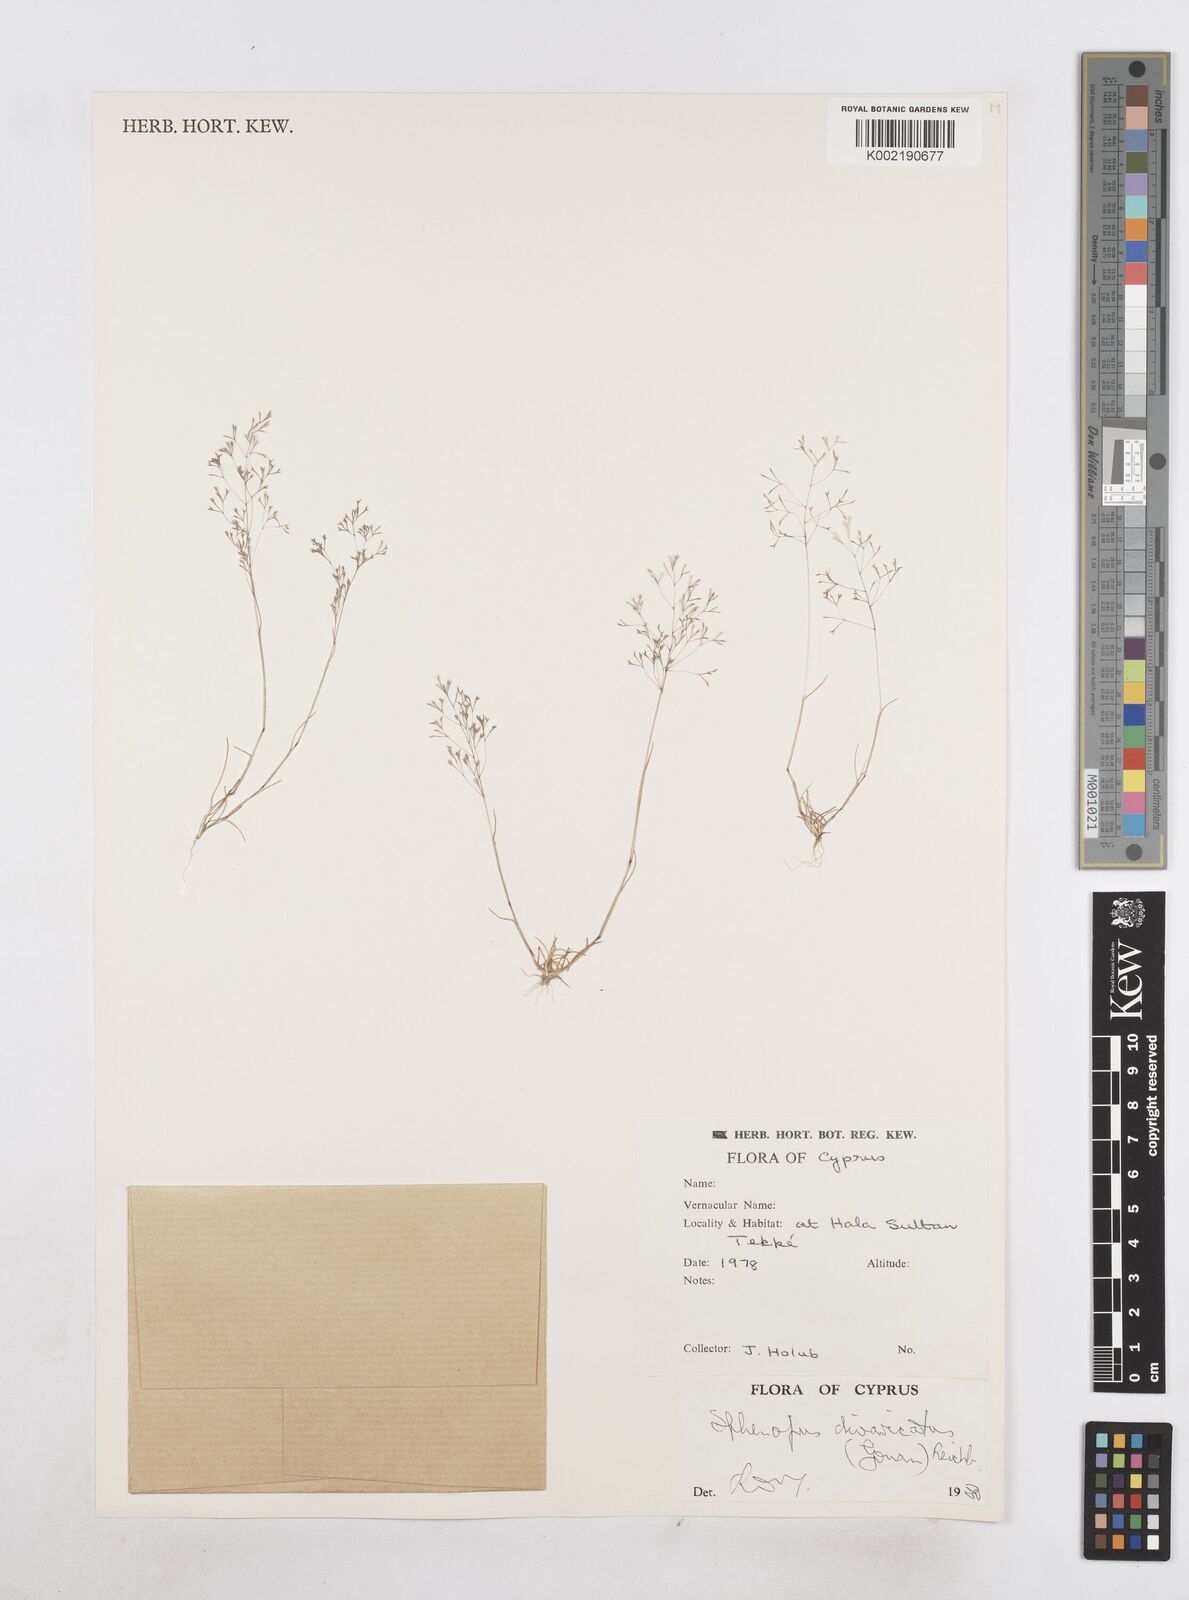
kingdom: Plantae
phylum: Tracheophyta
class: Liliopsida
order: Poales
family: Poaceae
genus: Sphenopus
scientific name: Sphenopus divaricatus
